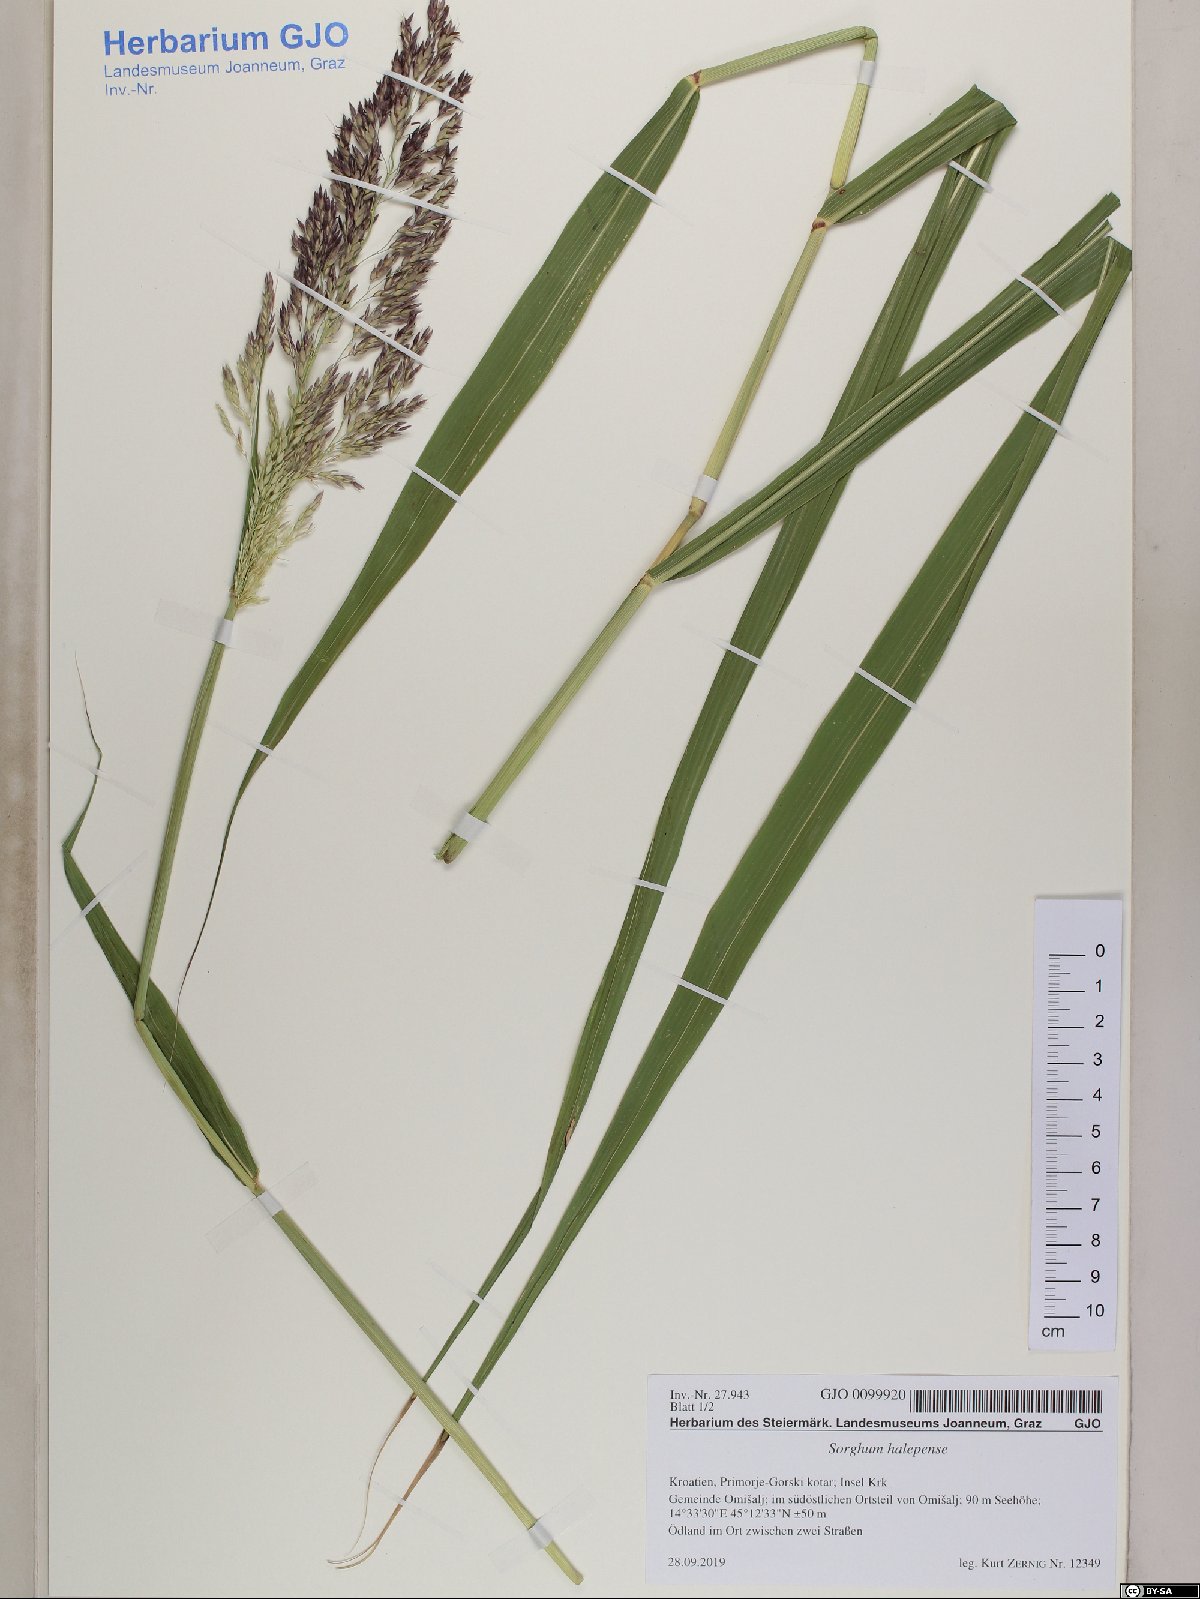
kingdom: Plantae
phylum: Tracheophyta
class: Liliopsida
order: Poales
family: Poaceae
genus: Sorghum
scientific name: Sorghum halepense
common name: Johnson-grass
